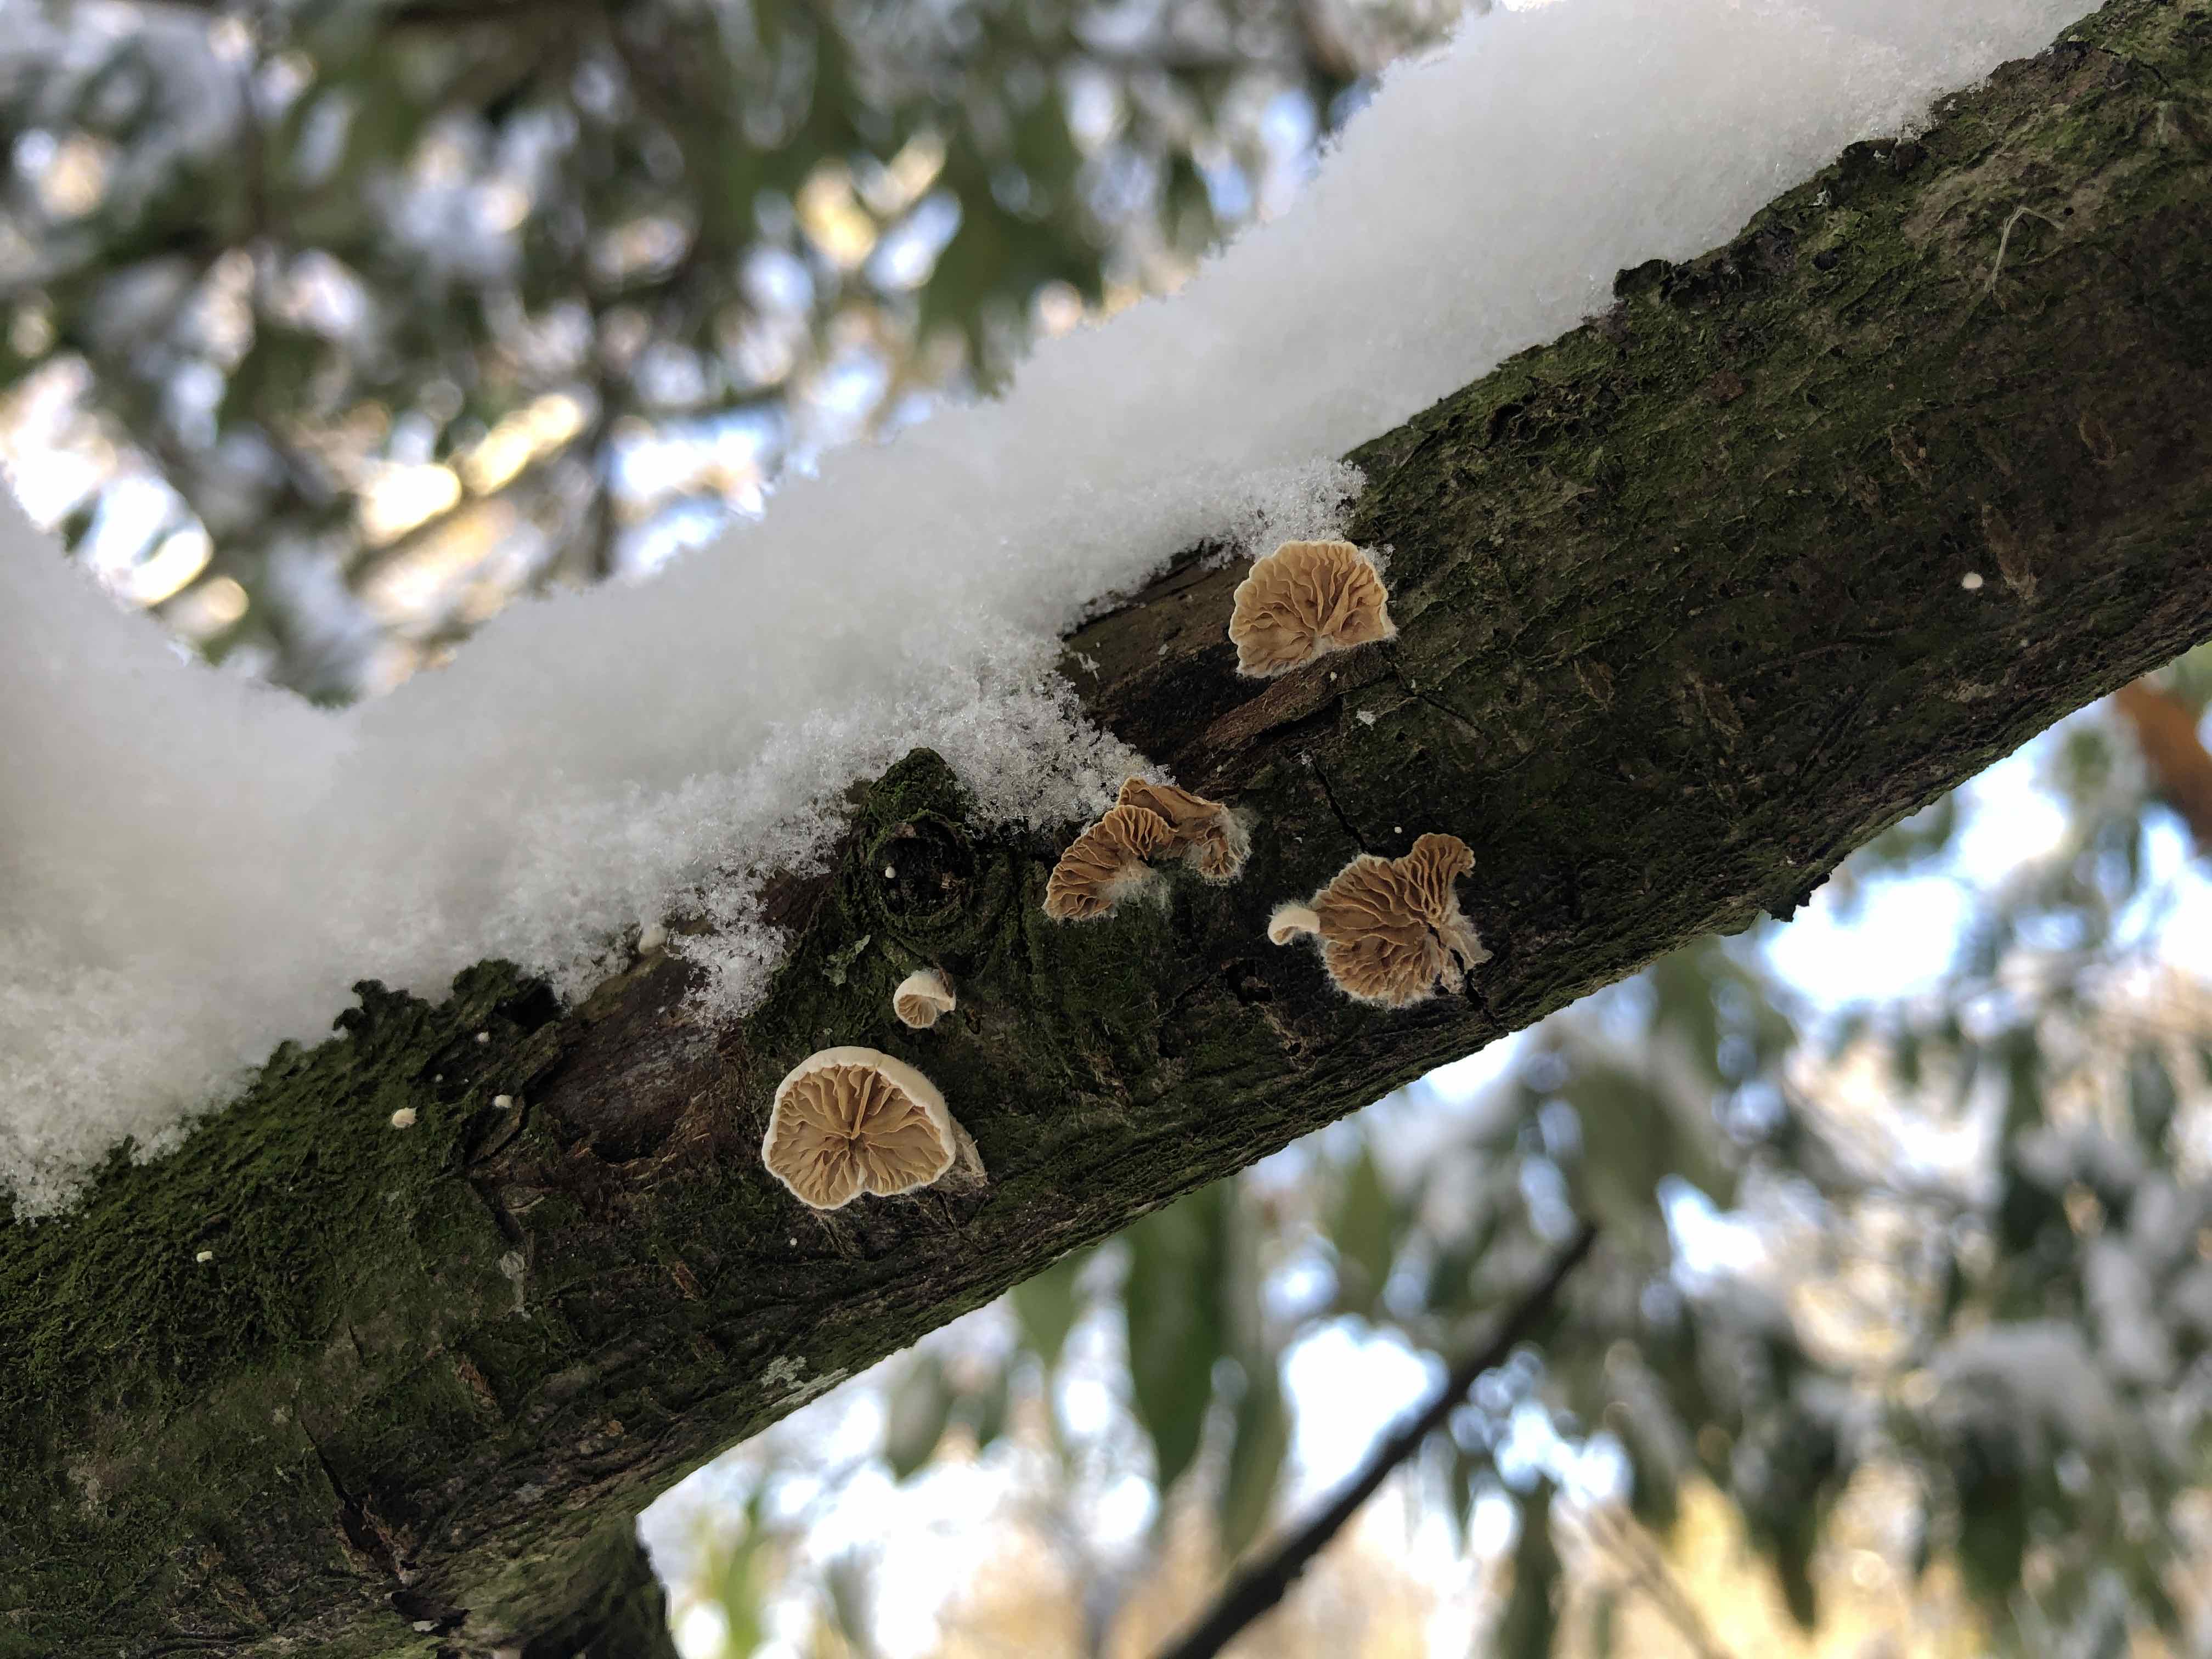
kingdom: Fungi
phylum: Basidiomycota
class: Agaricomycetes
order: Agaricales
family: Crepidotaceae
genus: Crepidotus
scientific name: Crepidotus cesatii
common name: almindelig muslingesvamp
